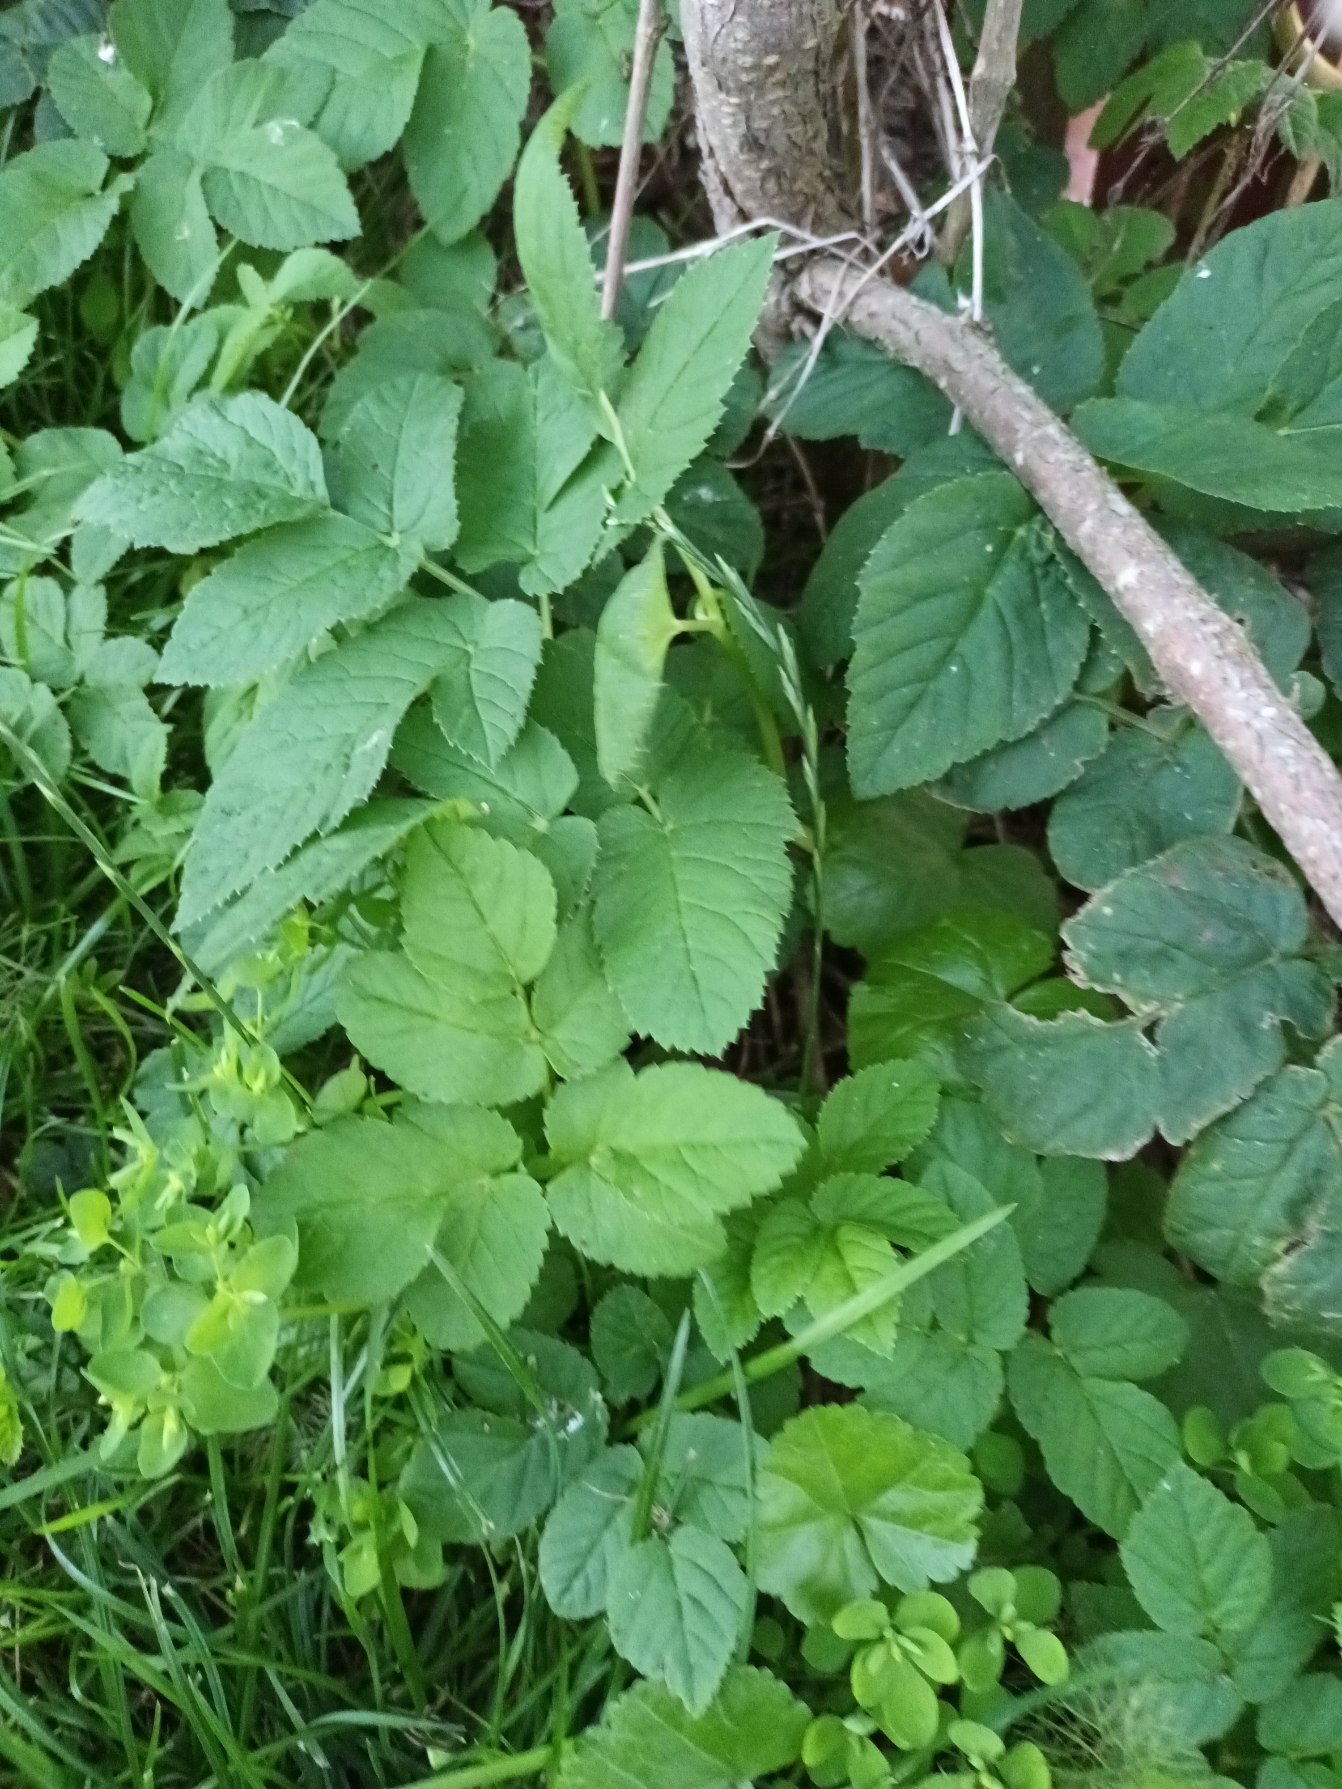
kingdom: Plantae
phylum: Tracheophyta
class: Magnoliopsida
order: Apiales
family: Apiaceae
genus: Aegopodium
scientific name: Aegopodium podagraria
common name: Skvalderkål
